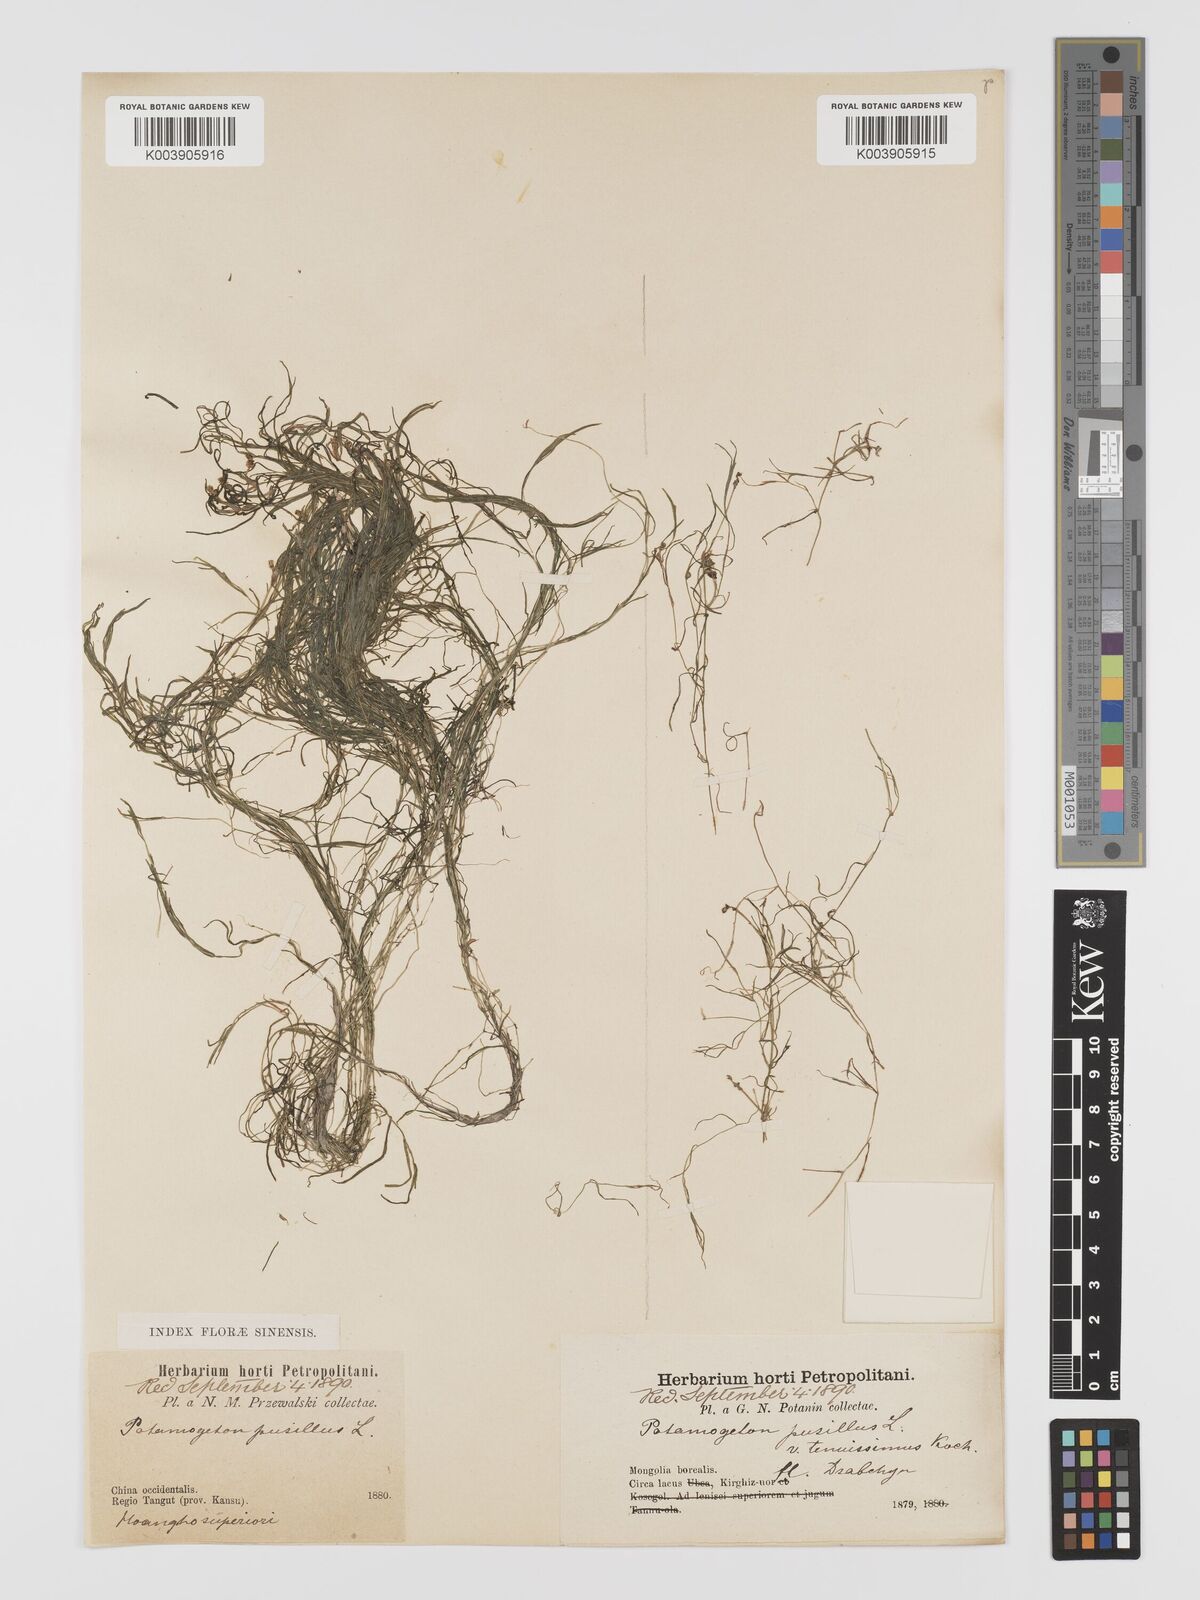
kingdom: Plantae
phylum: Tracheophyta
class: Liliopsida
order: Alismatales
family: Potamogetonaceae
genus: Potamogeton
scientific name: Potamogeton pusillus
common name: Lesser pondweed
